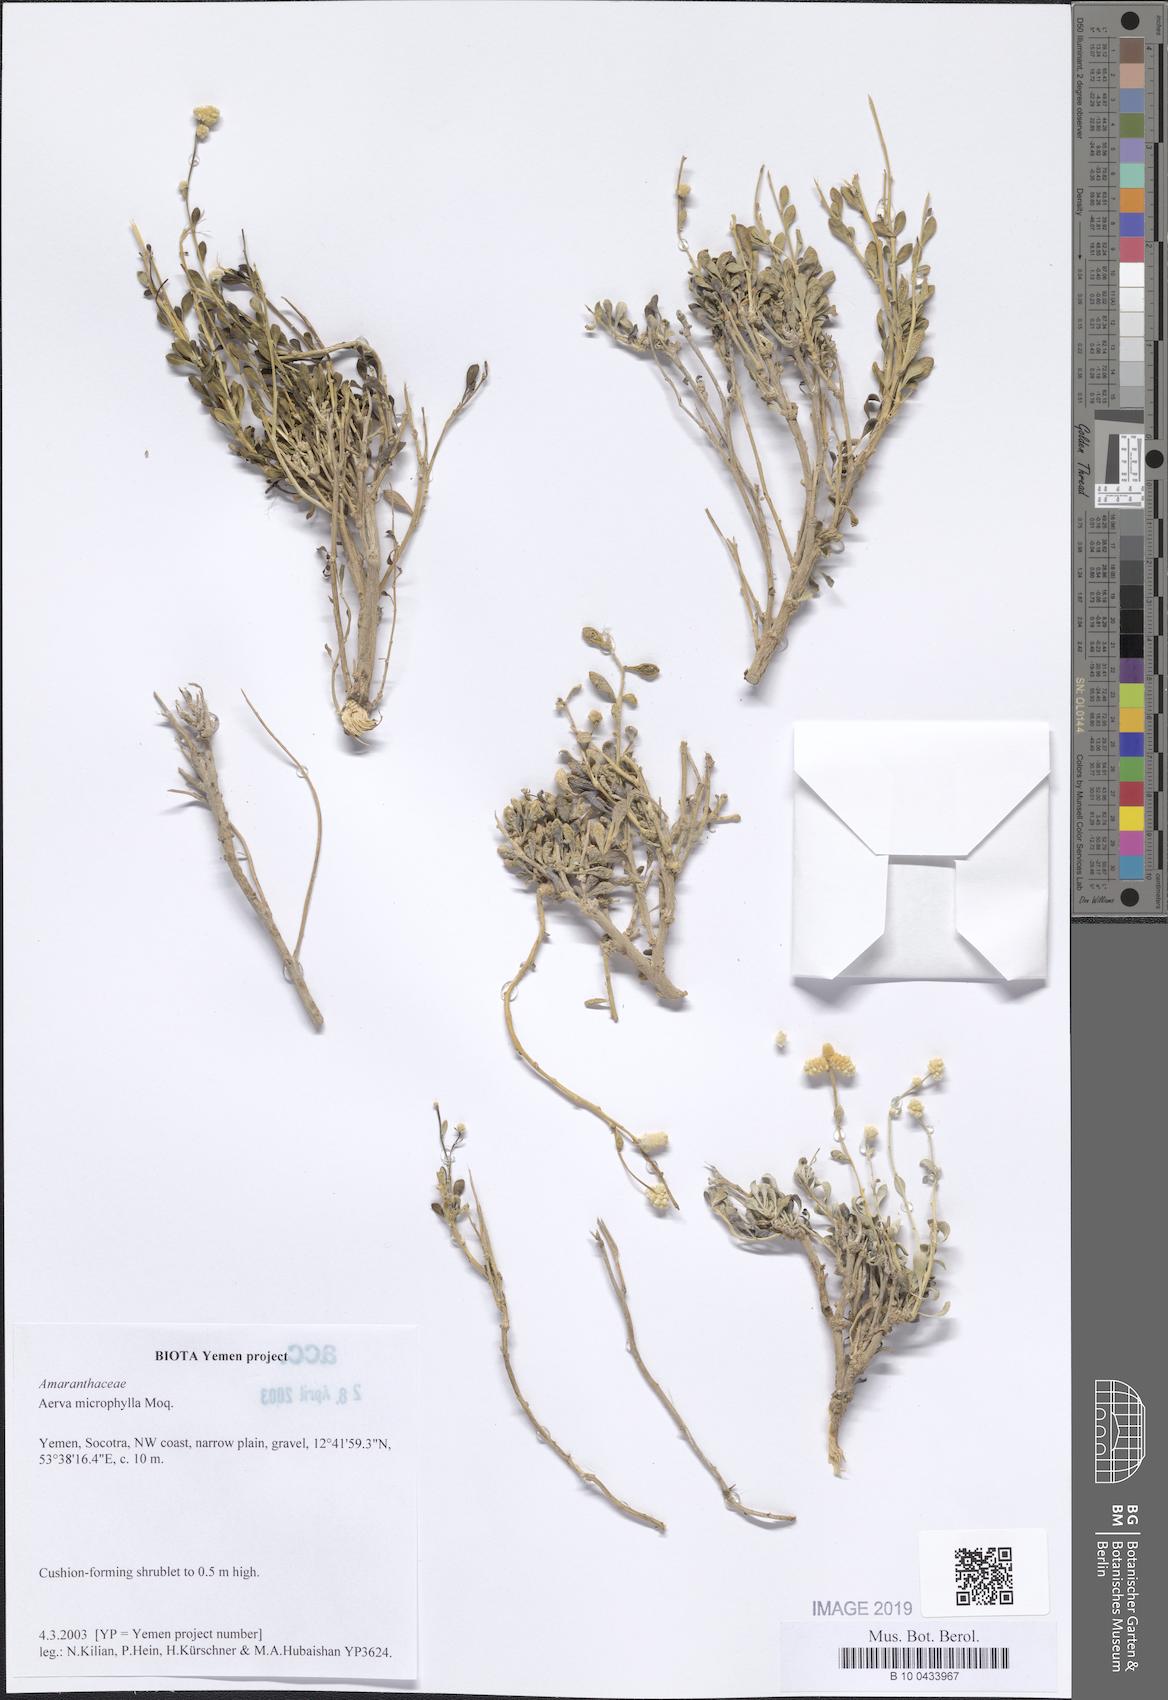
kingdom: Plantae
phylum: Tracheophyta
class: Magnoliopsida
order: Caryophyllales
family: Amaranthaceae
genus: Paraerva
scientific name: Paraerva microphylla
